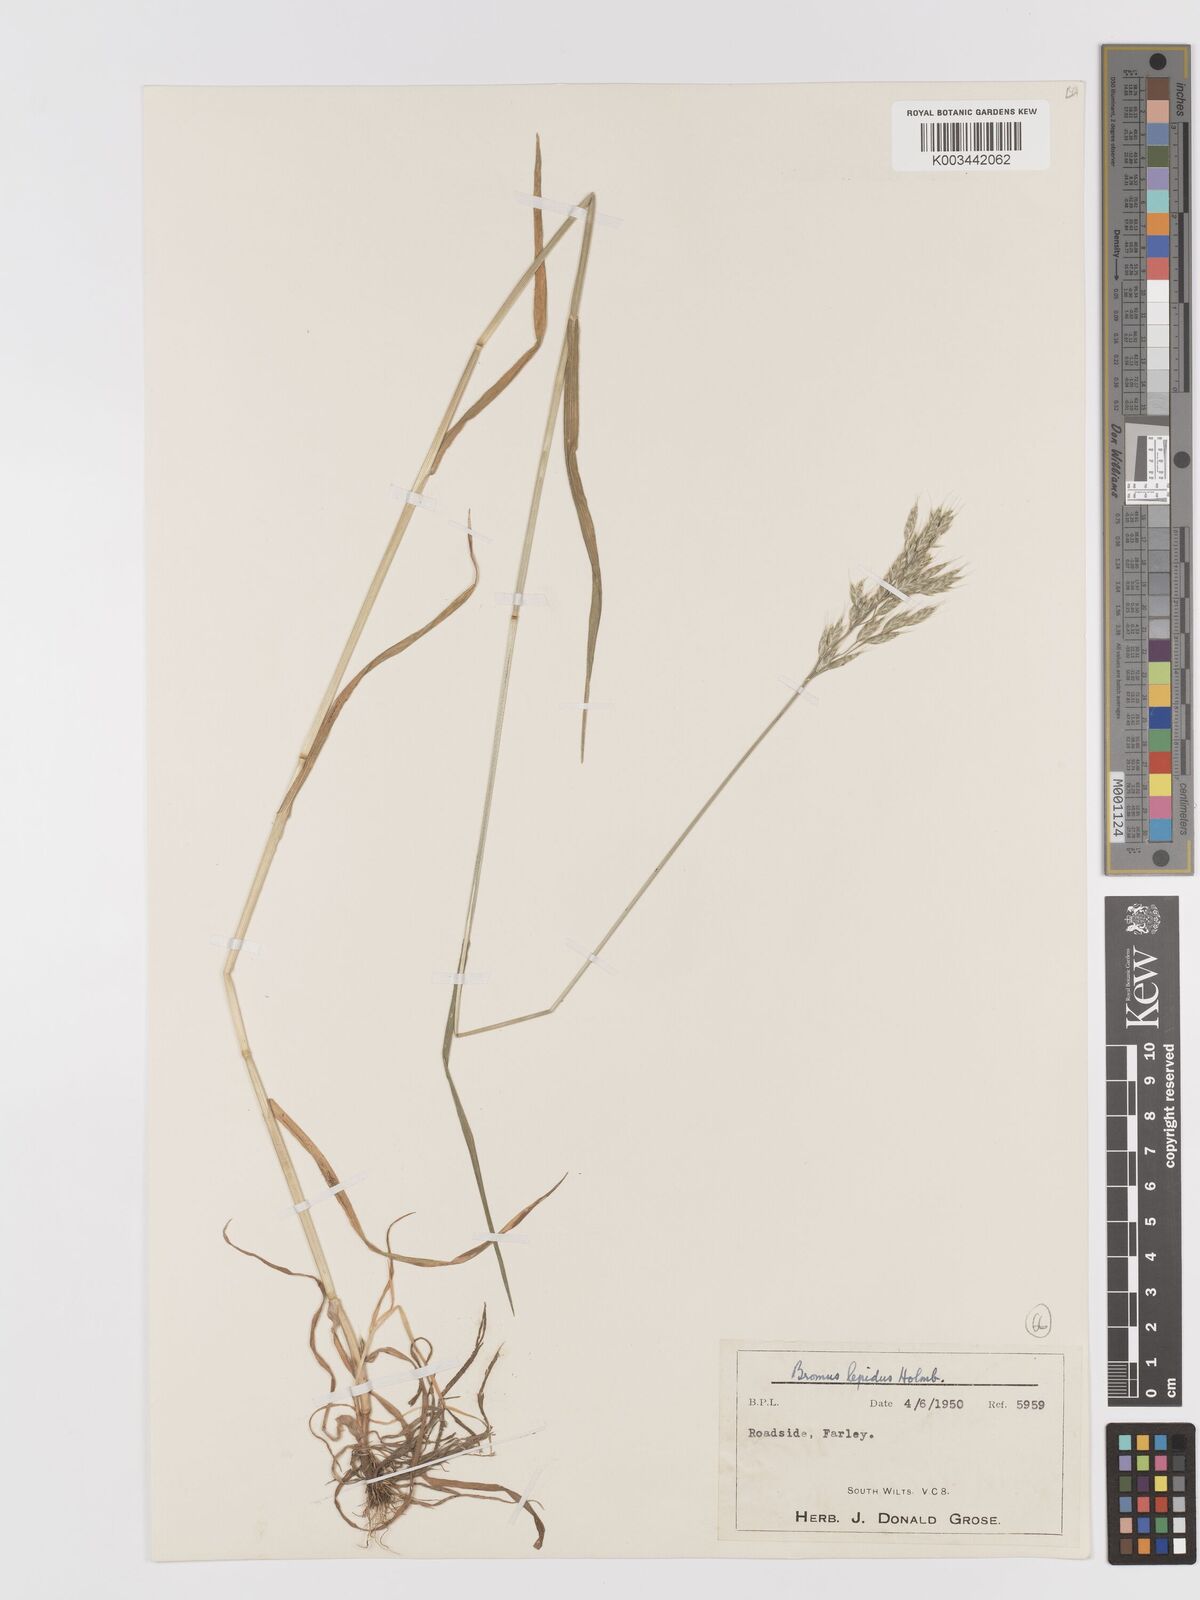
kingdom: Plantae
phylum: Tracheophyta
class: Liliopsida
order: Poales
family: Poaceae
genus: Bromus
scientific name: Bromus lepidus
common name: Slender soft-brome
